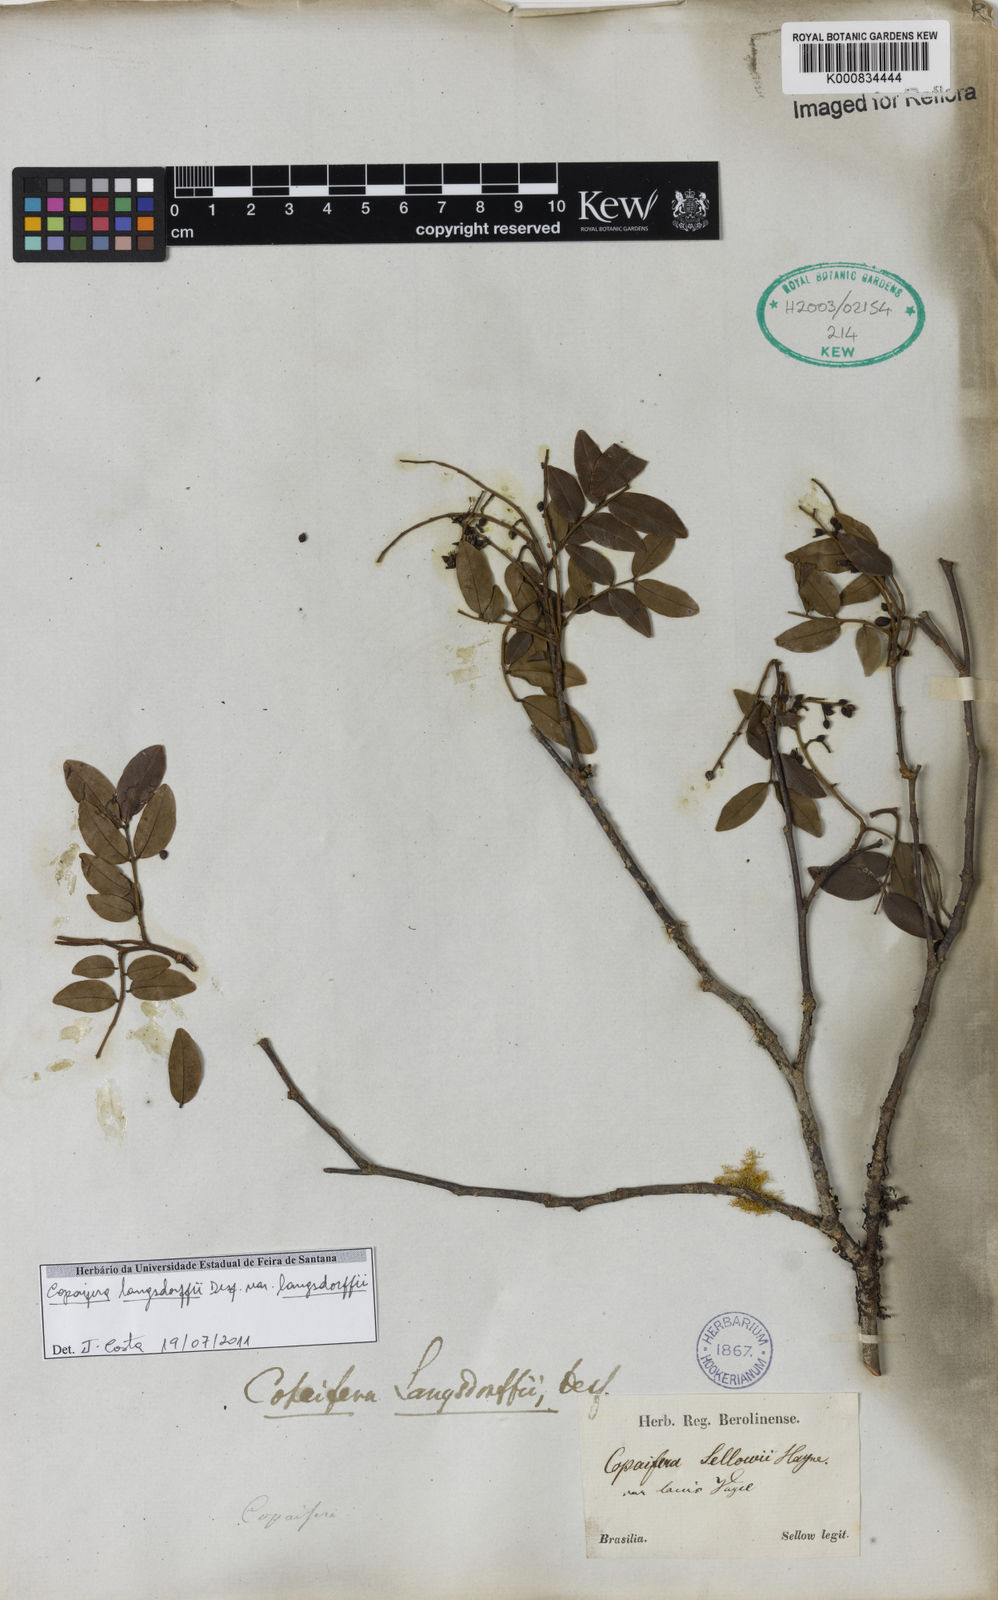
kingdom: Plantae
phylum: Tracheophyta
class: Magnoliopsida
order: Fabales
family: Fabaceae
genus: Copaifera
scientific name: Copaifera langsdorffii
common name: Brazilian diesel tree
